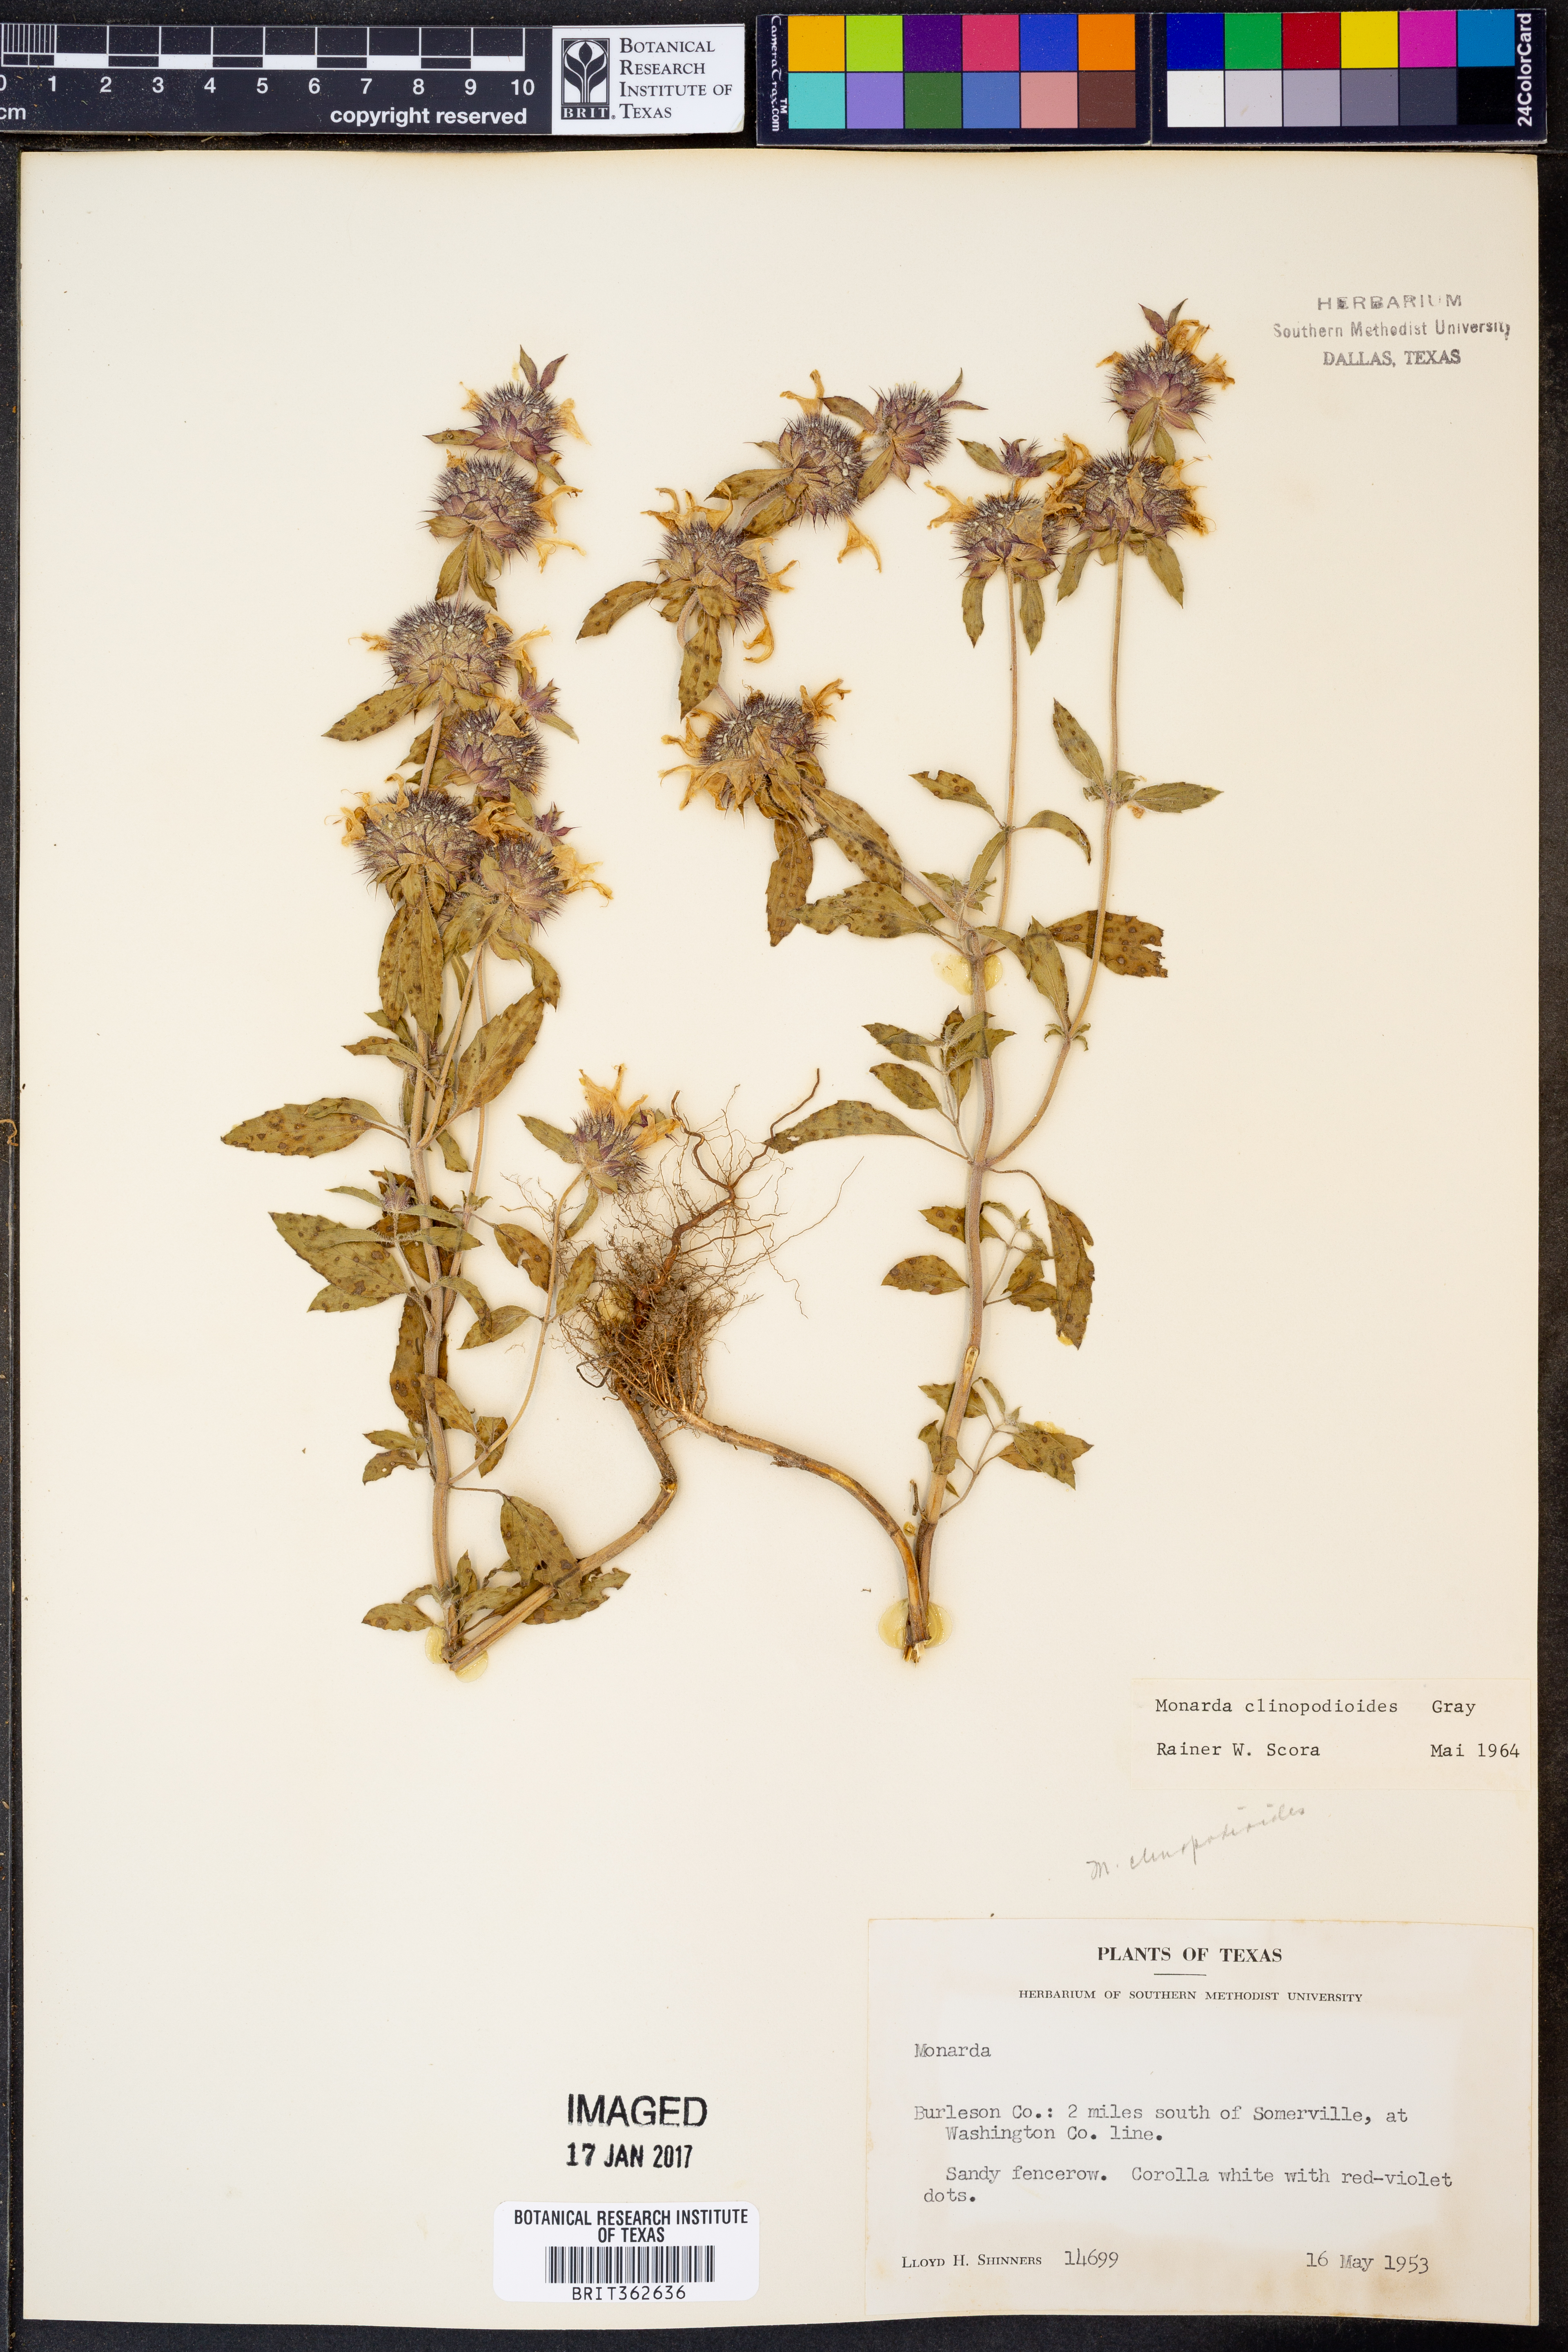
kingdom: Plantae
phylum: Tracheophyta
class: Magnoliopsida
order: Lamiales
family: Lamiaceae
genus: Monarda
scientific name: Monarda clinopodioides
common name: Basil beebalm
